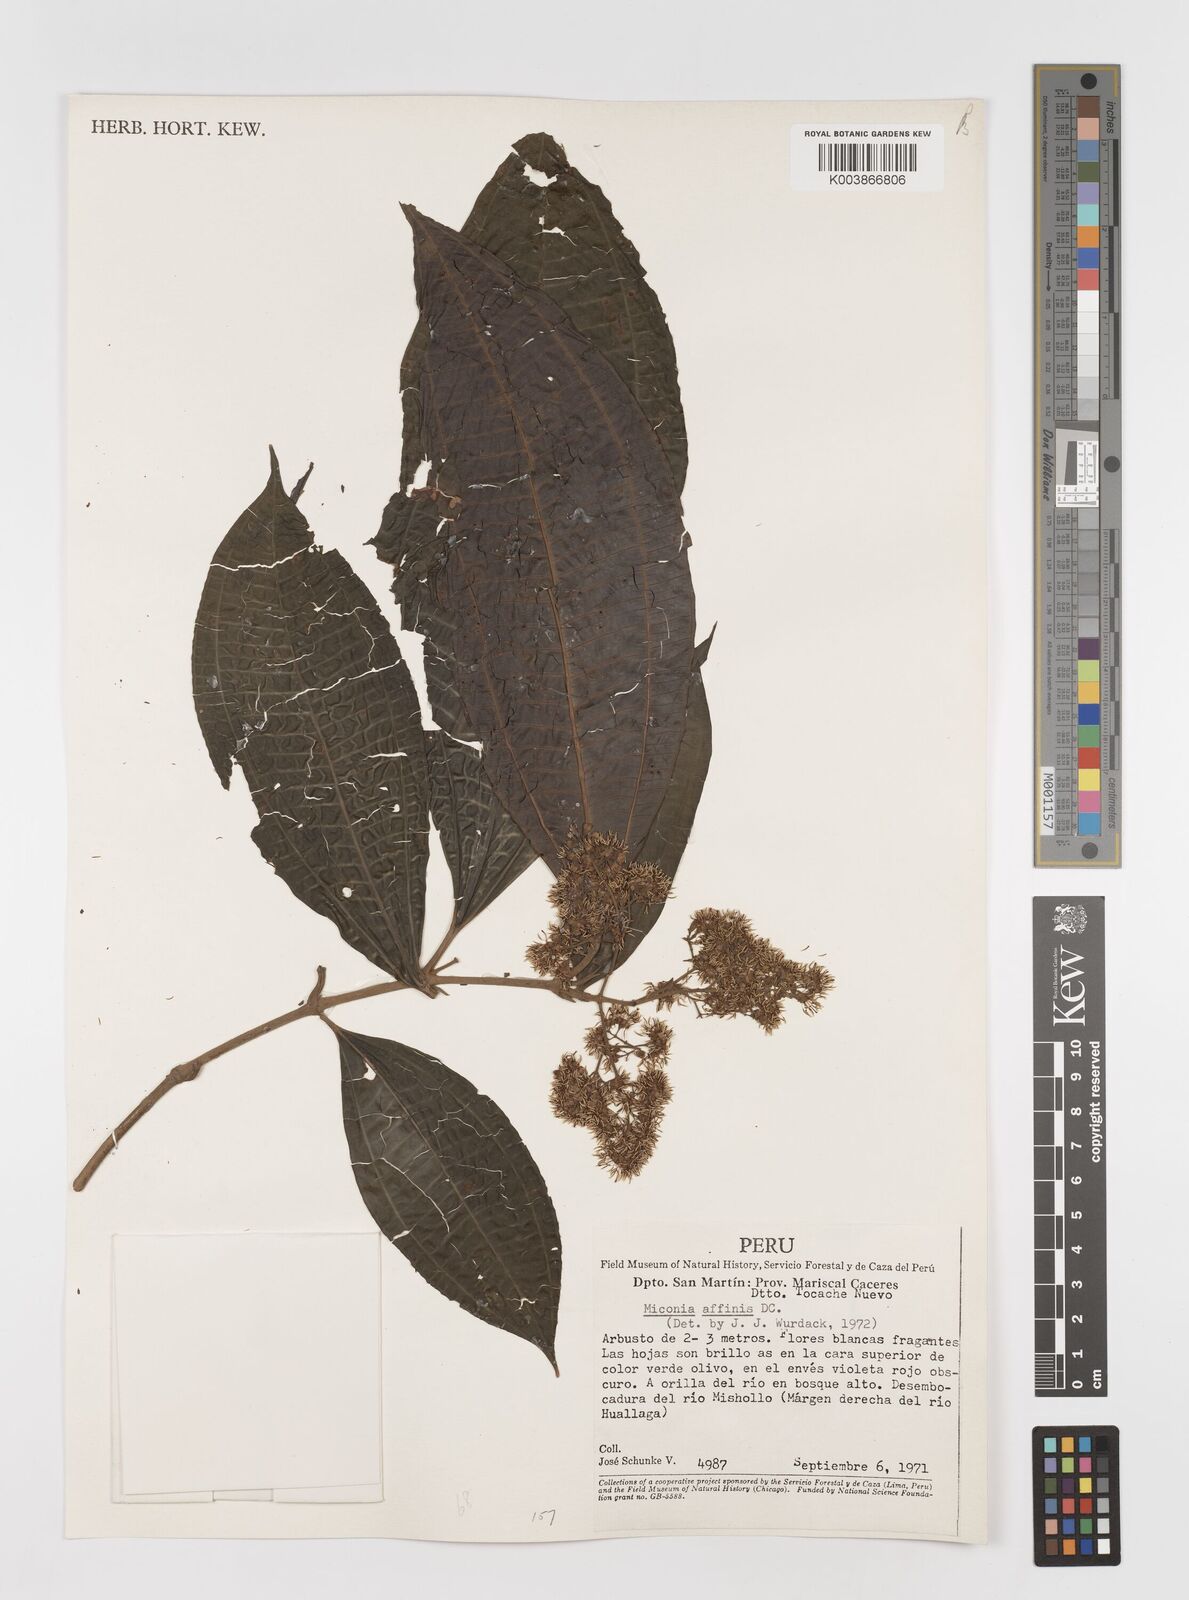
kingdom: Plantae
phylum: Tracheophyta
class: Magnoliopsida
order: Myrtales
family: Melastomataceae
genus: Miconia
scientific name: Miconia
